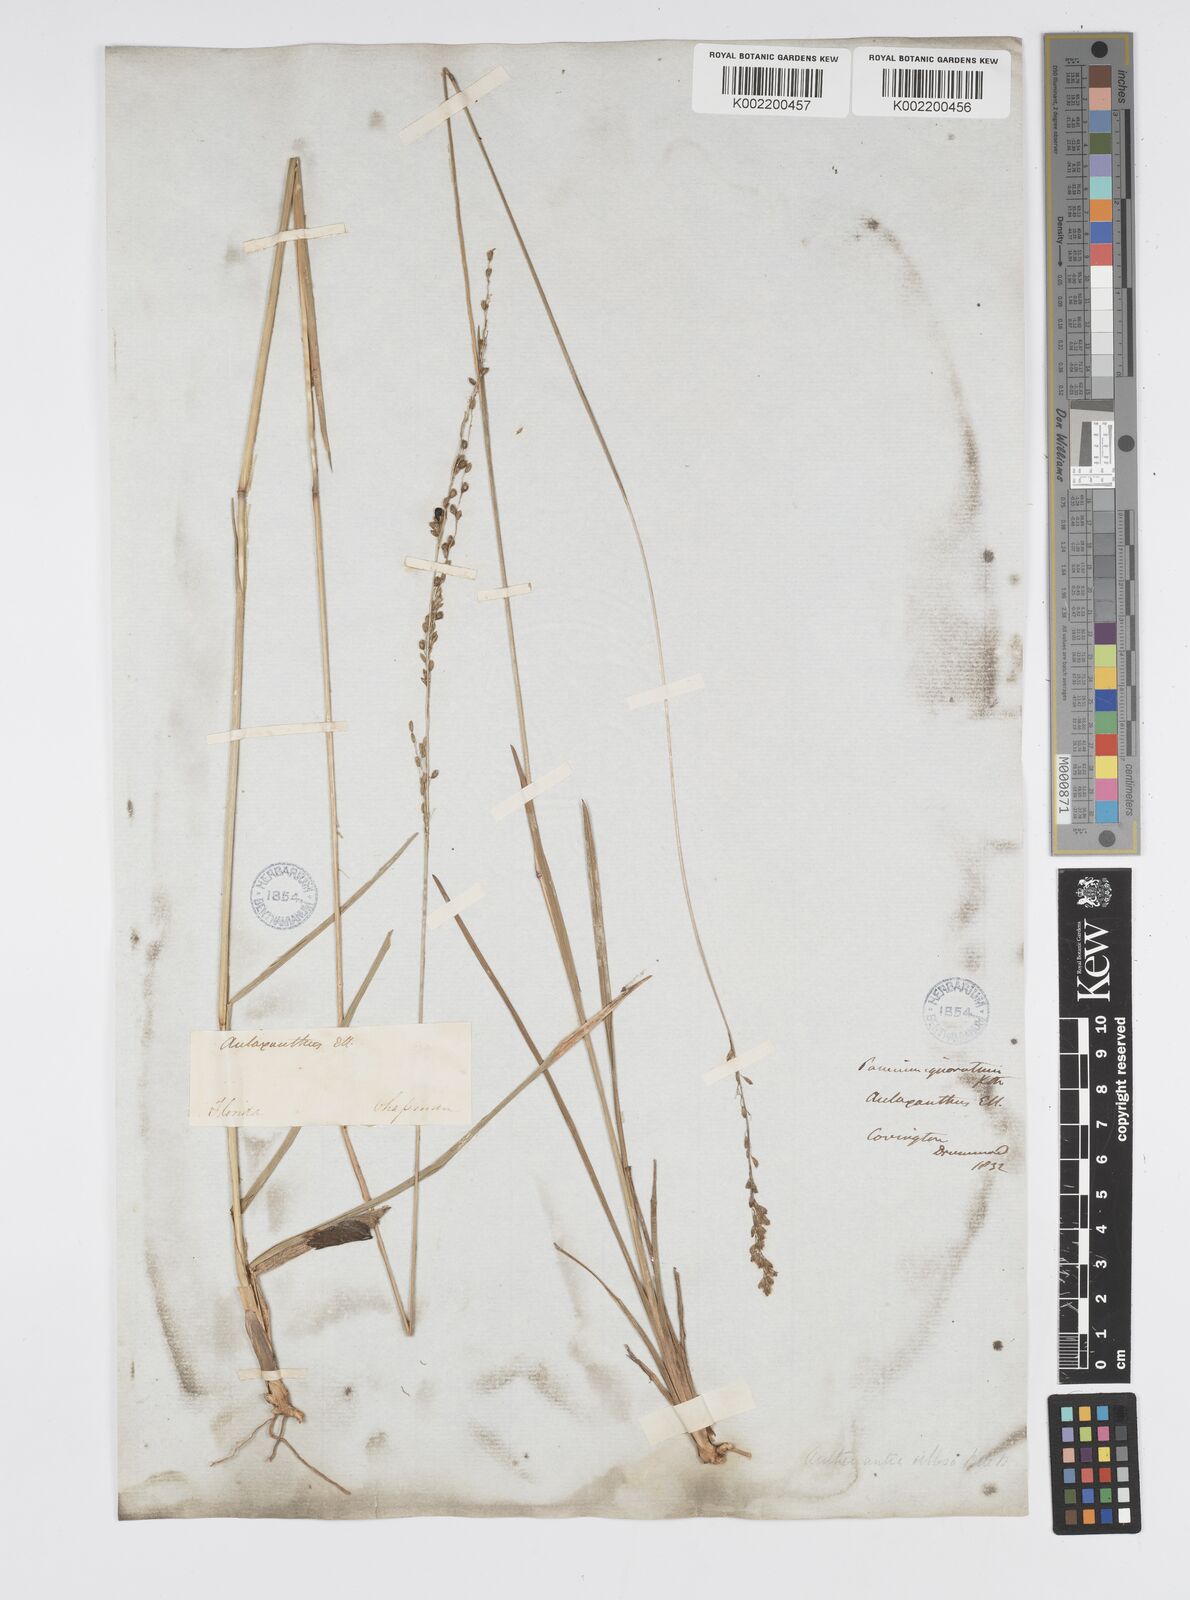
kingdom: Plantae
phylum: Tracheophyta
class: Liliopsida
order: Poales
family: Poaceae
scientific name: Poaceae
